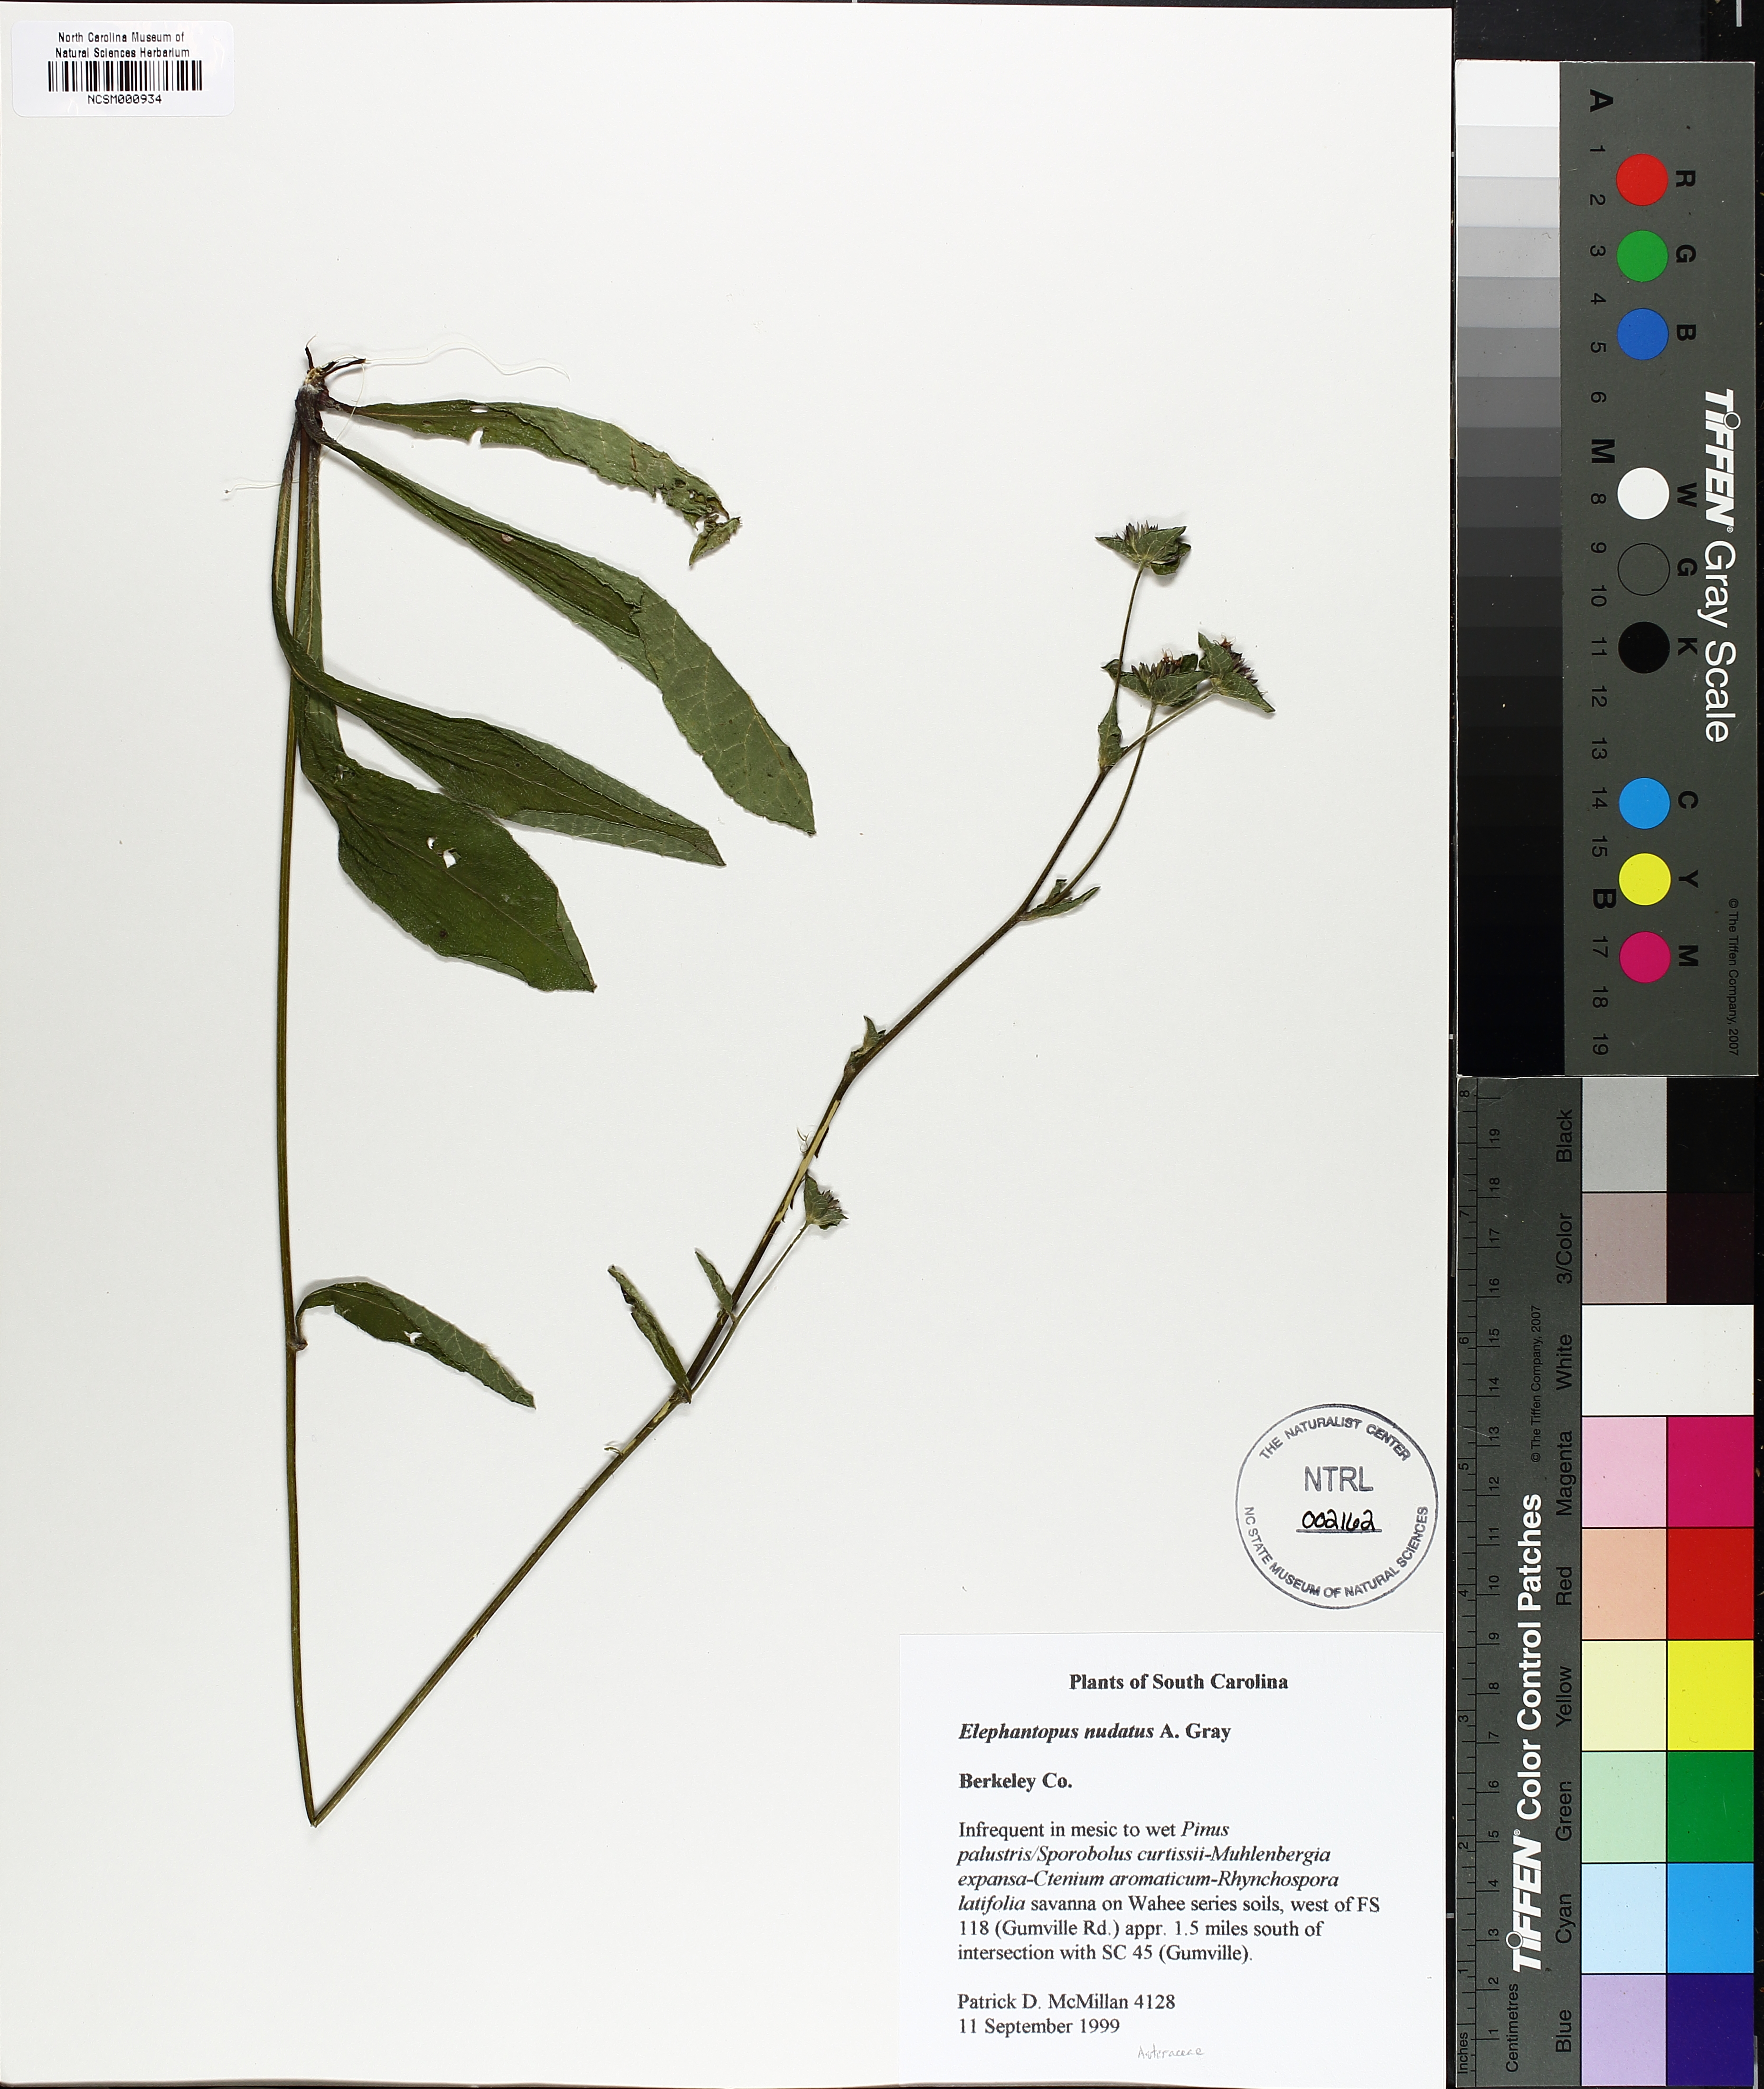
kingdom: Plantae
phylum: Tracheophyta
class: Magnoliopsida
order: Asterales
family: Asteraceae
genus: Elephantopus
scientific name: Elephantopus nudatus
